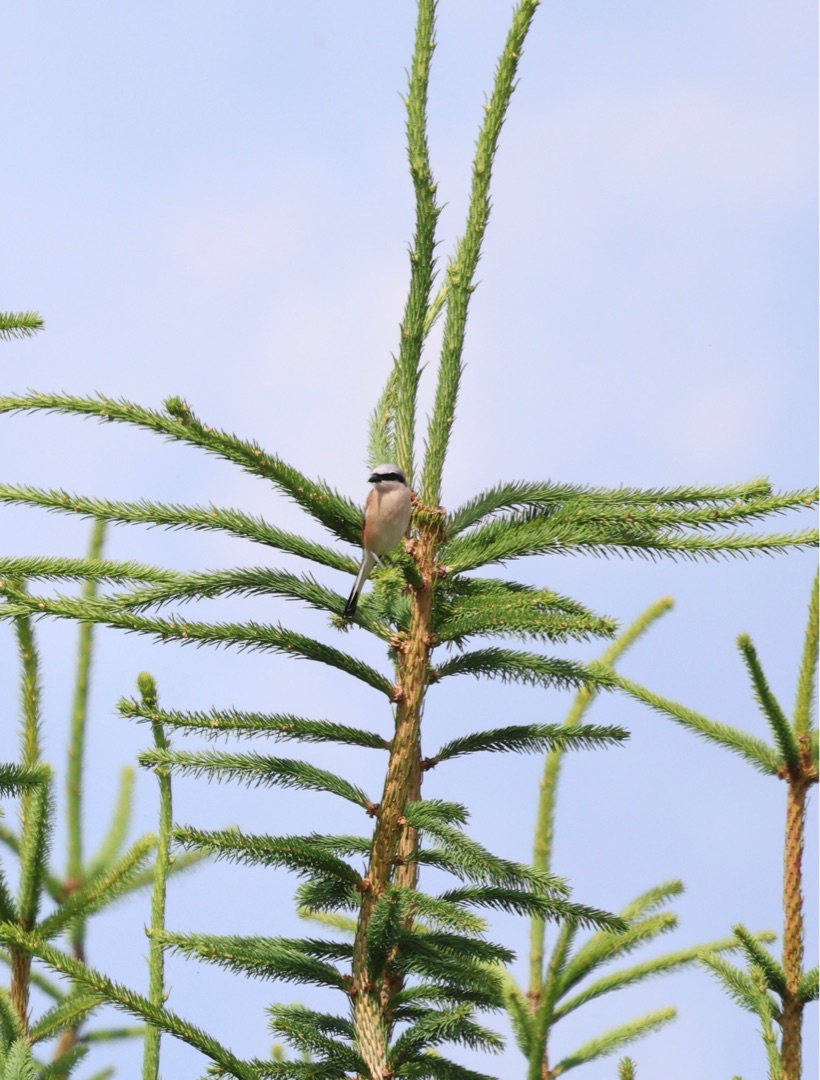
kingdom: Animalia
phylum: Chordata
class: Aves
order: Passeriformes
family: Laniidae
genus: Lanius
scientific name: Lanius collurio
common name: Rødrygget tornskade
